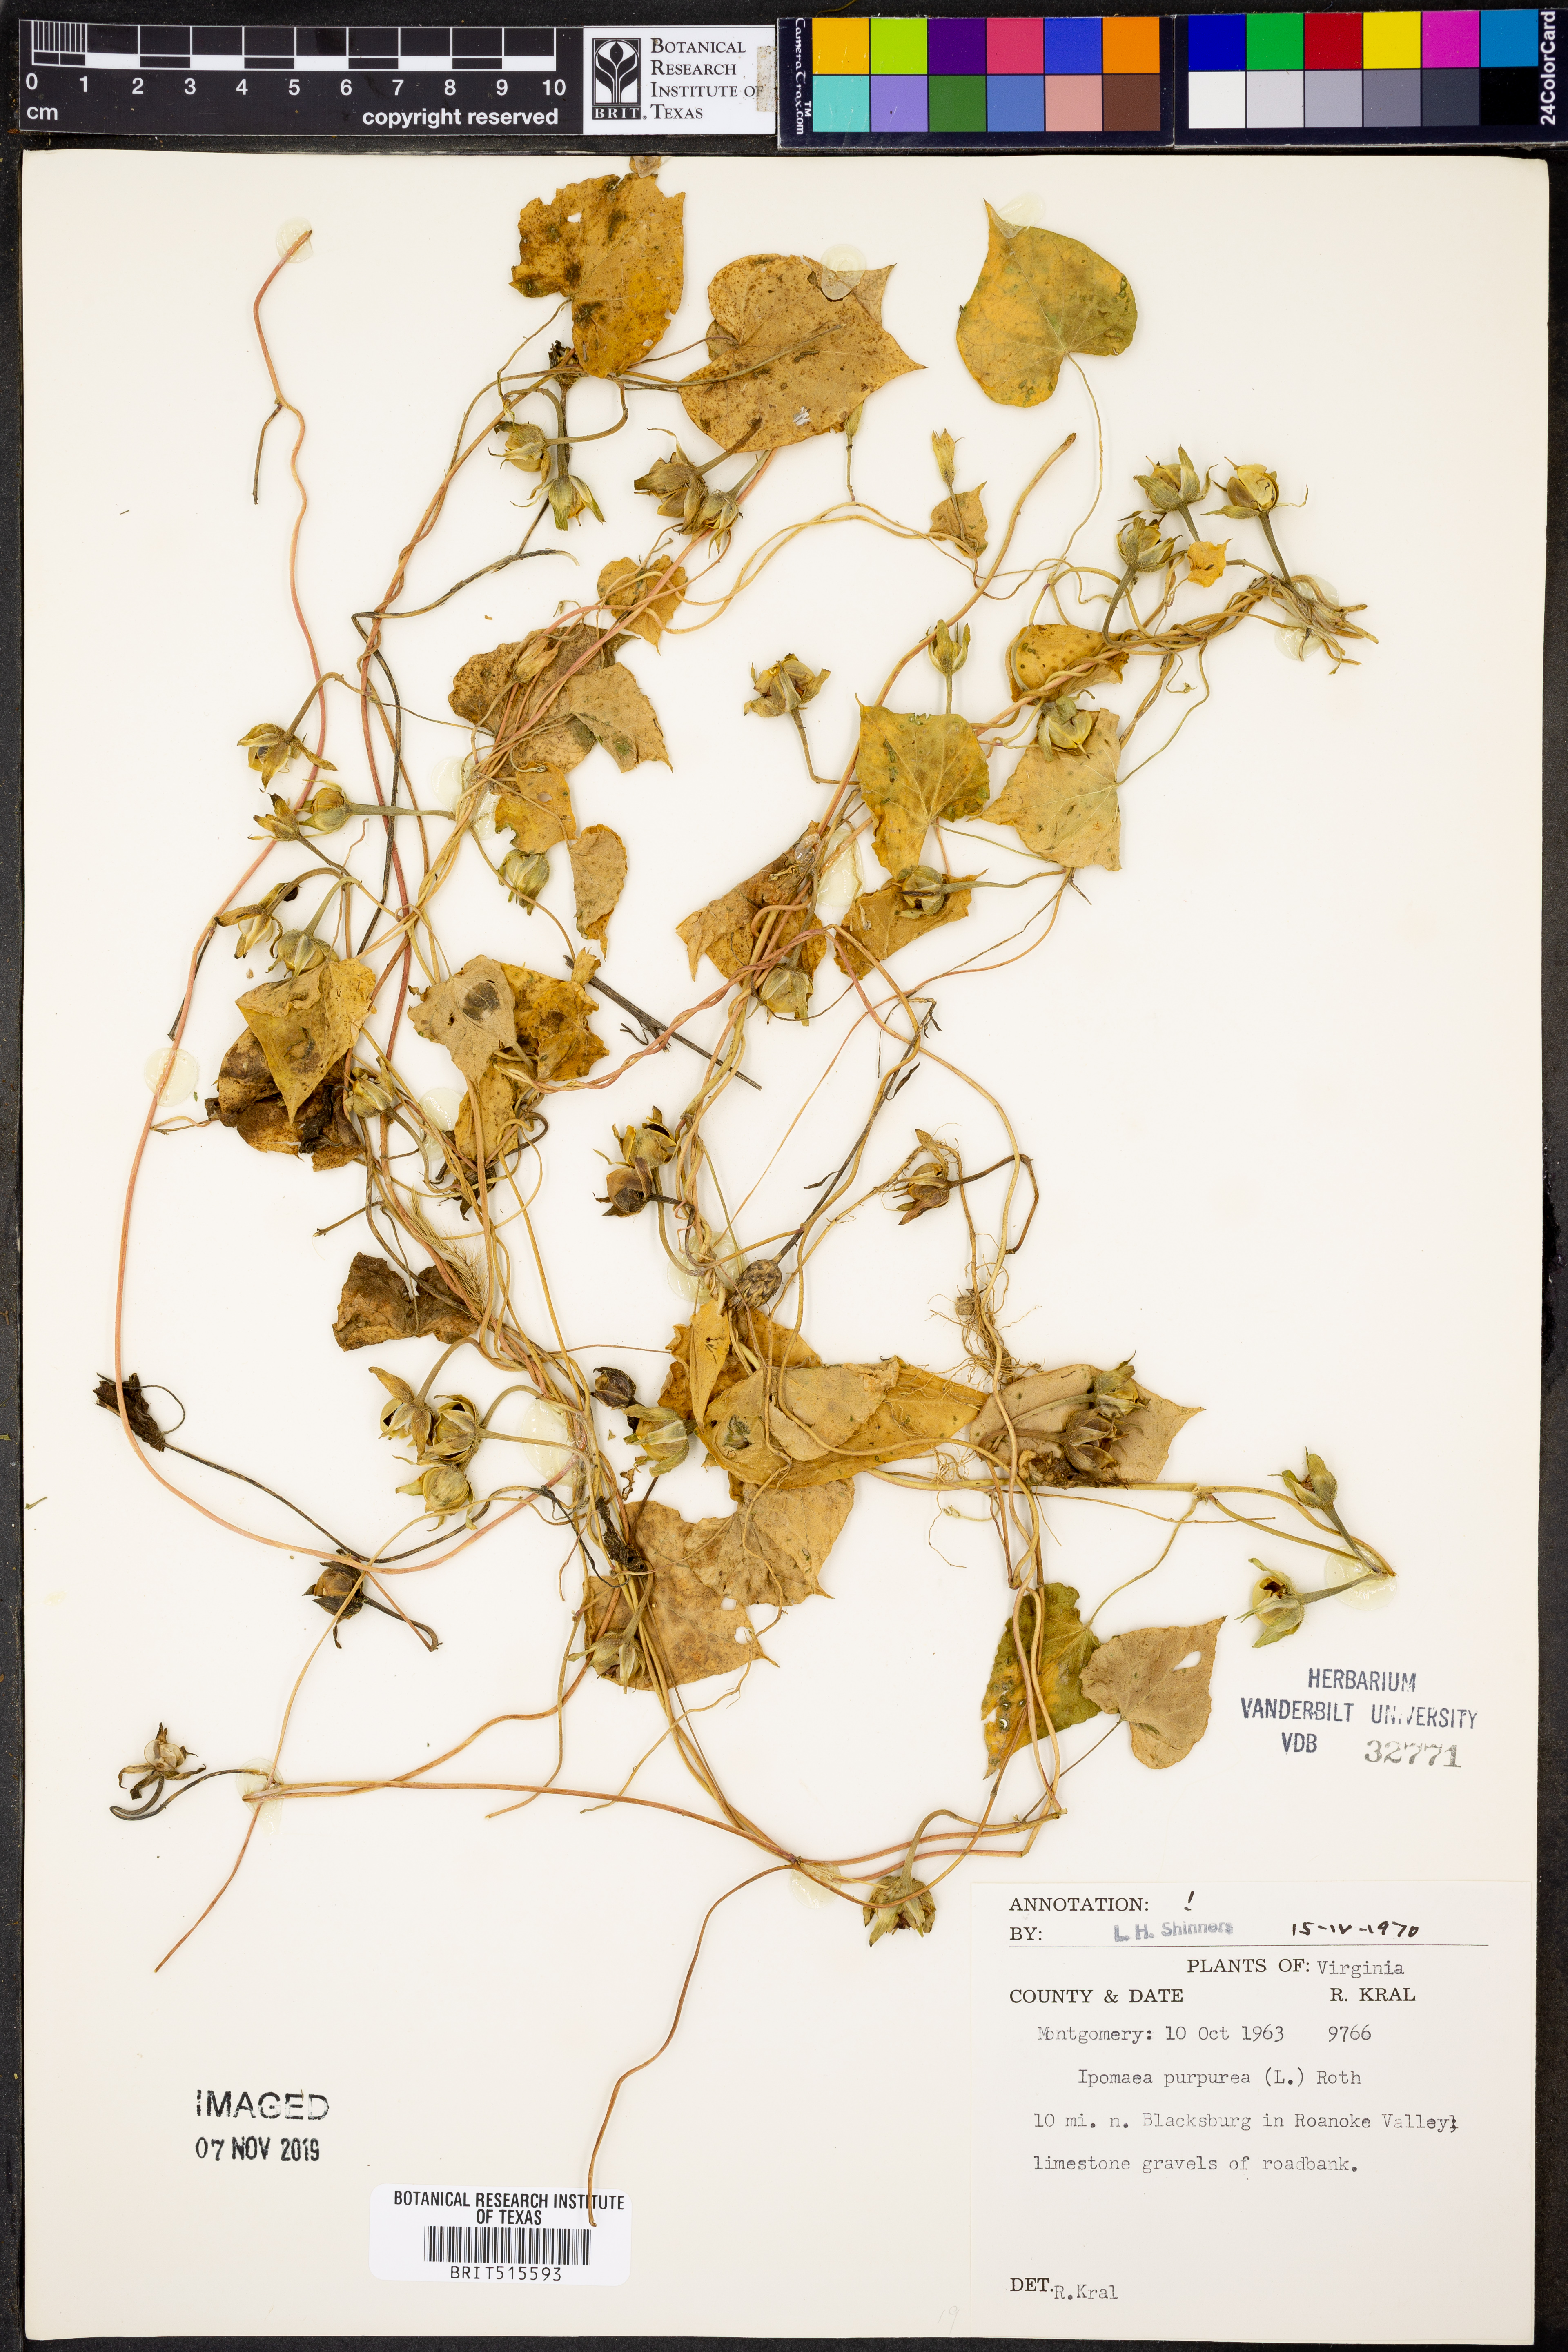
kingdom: Plantae
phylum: Tracheophyta
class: Magnoliopsida
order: Solanales
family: Convolvulaceae
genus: Ipomoea
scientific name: Ipomoea purpurea
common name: Common morning-glory
